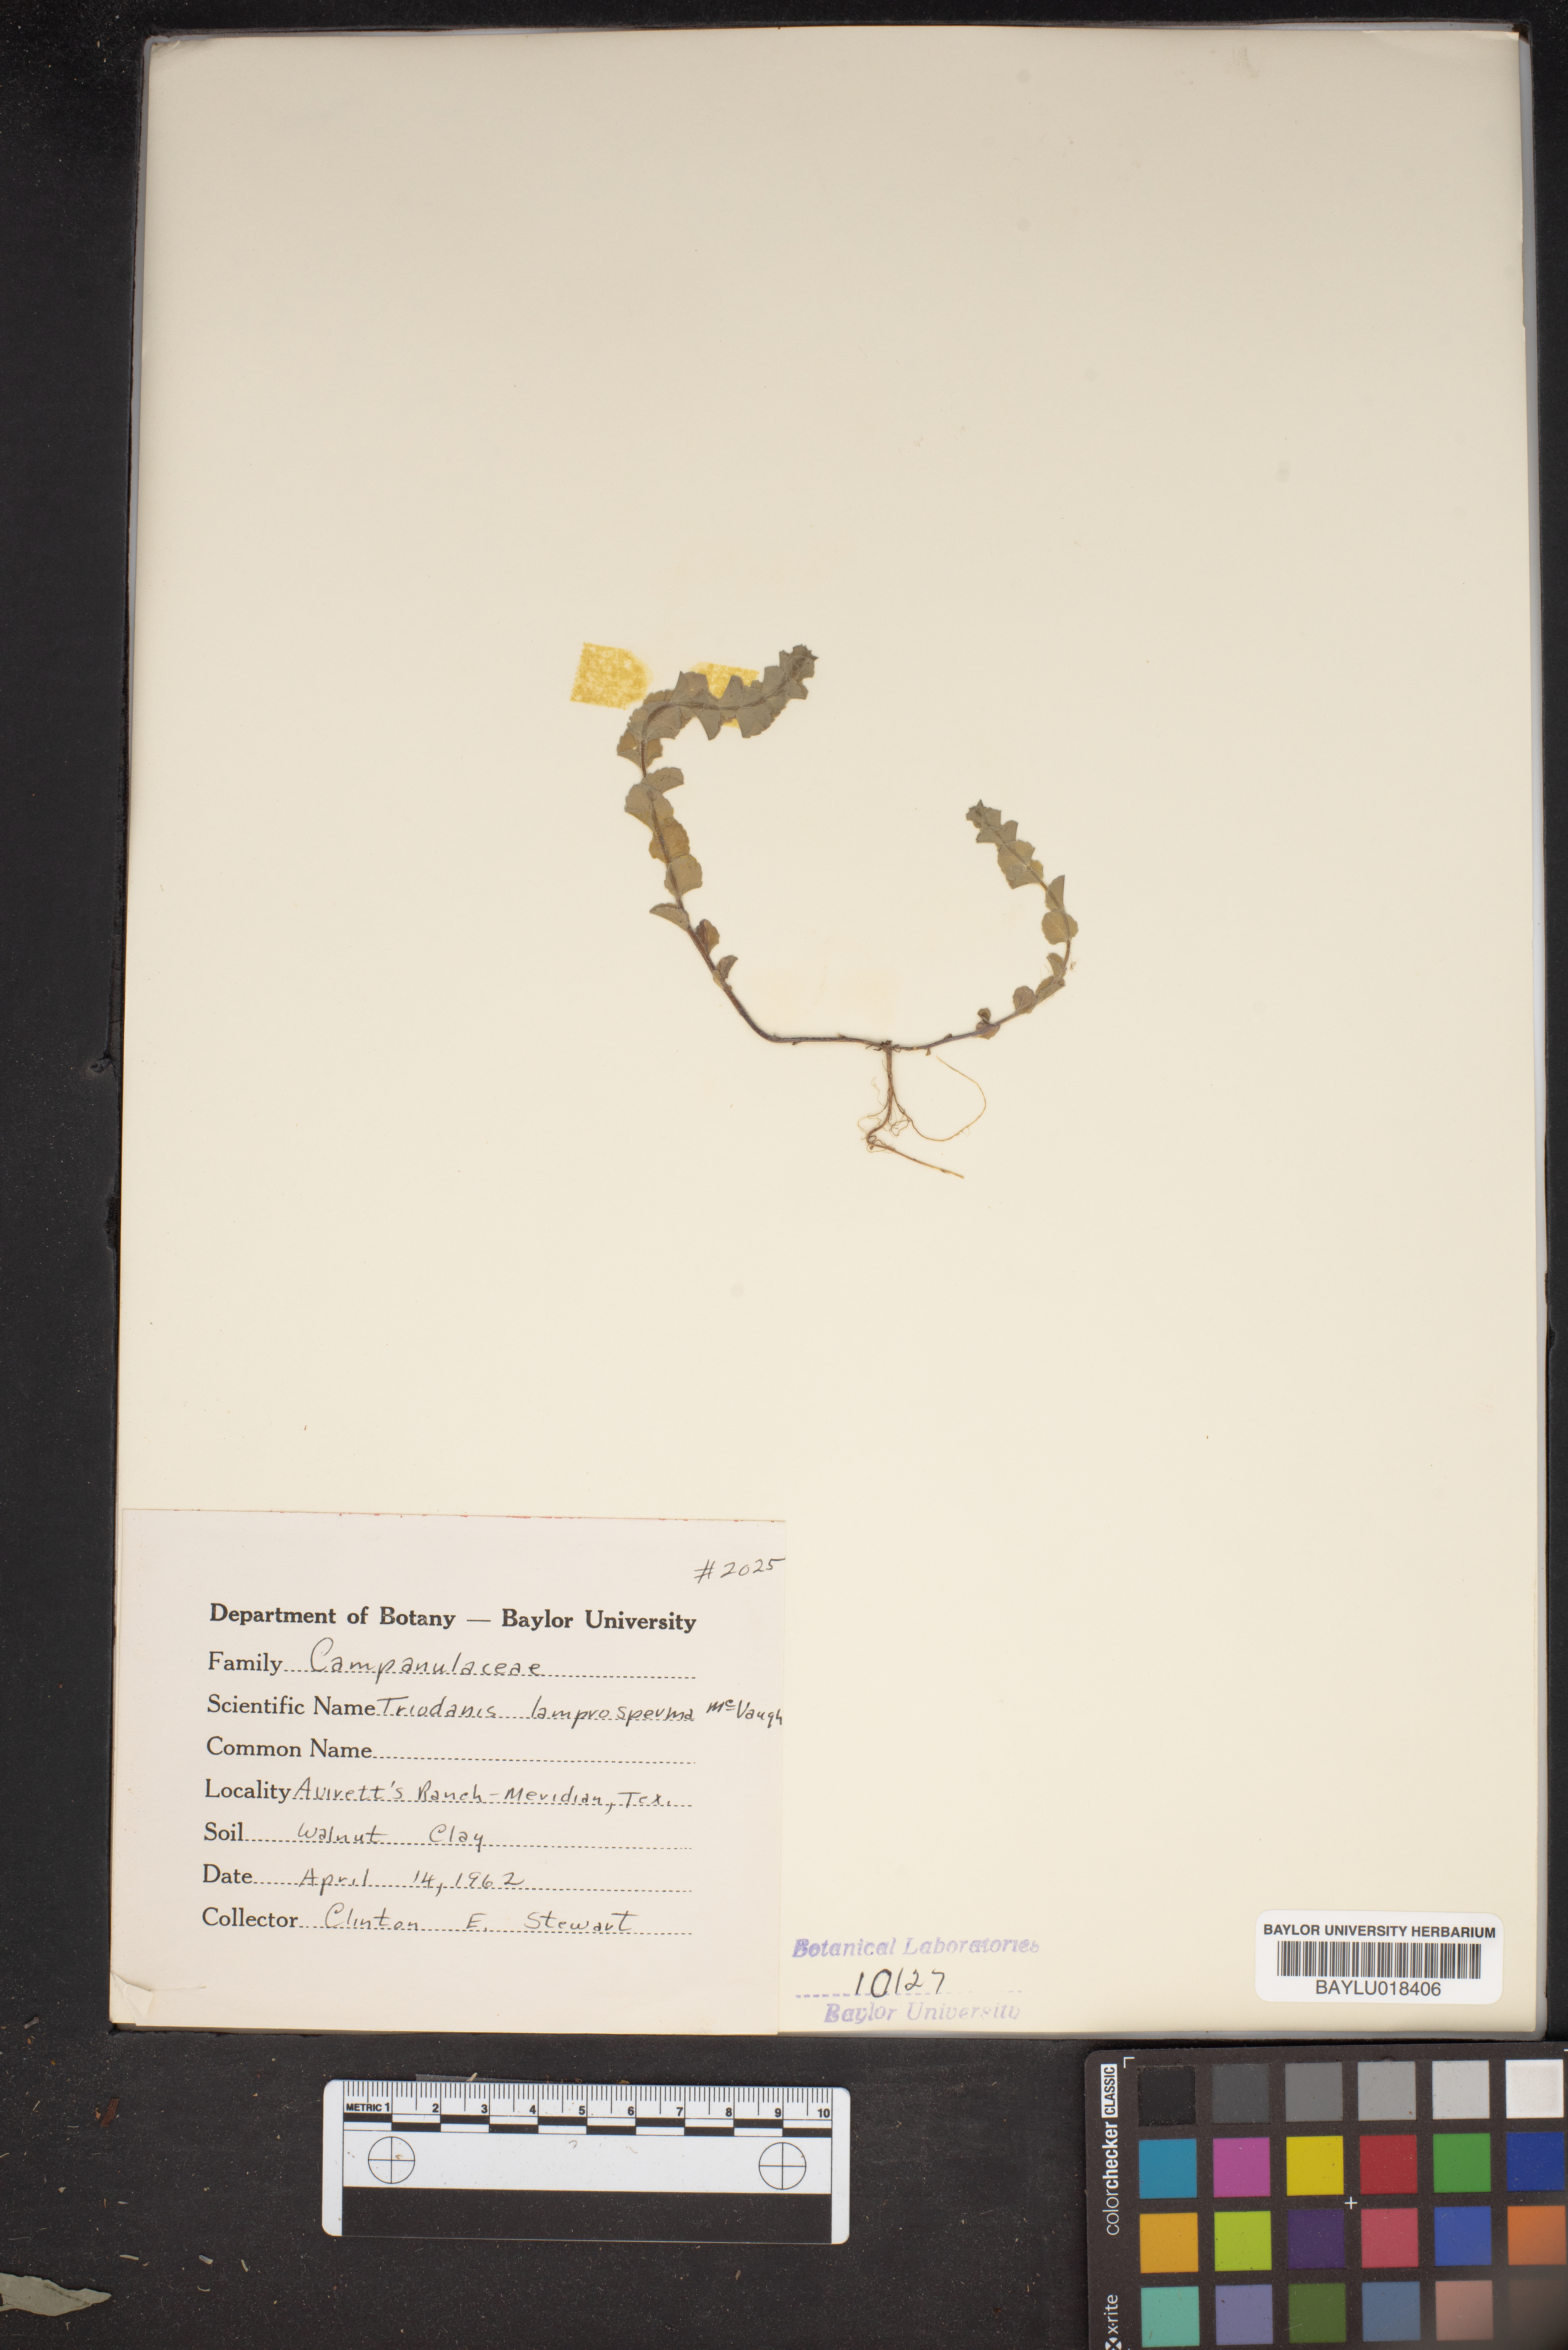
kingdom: Plantae
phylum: Tracheophyta
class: Magnoliopsida
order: Asterales
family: Campanulaceae
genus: Triodanis
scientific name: Triodanis lamprosperma
